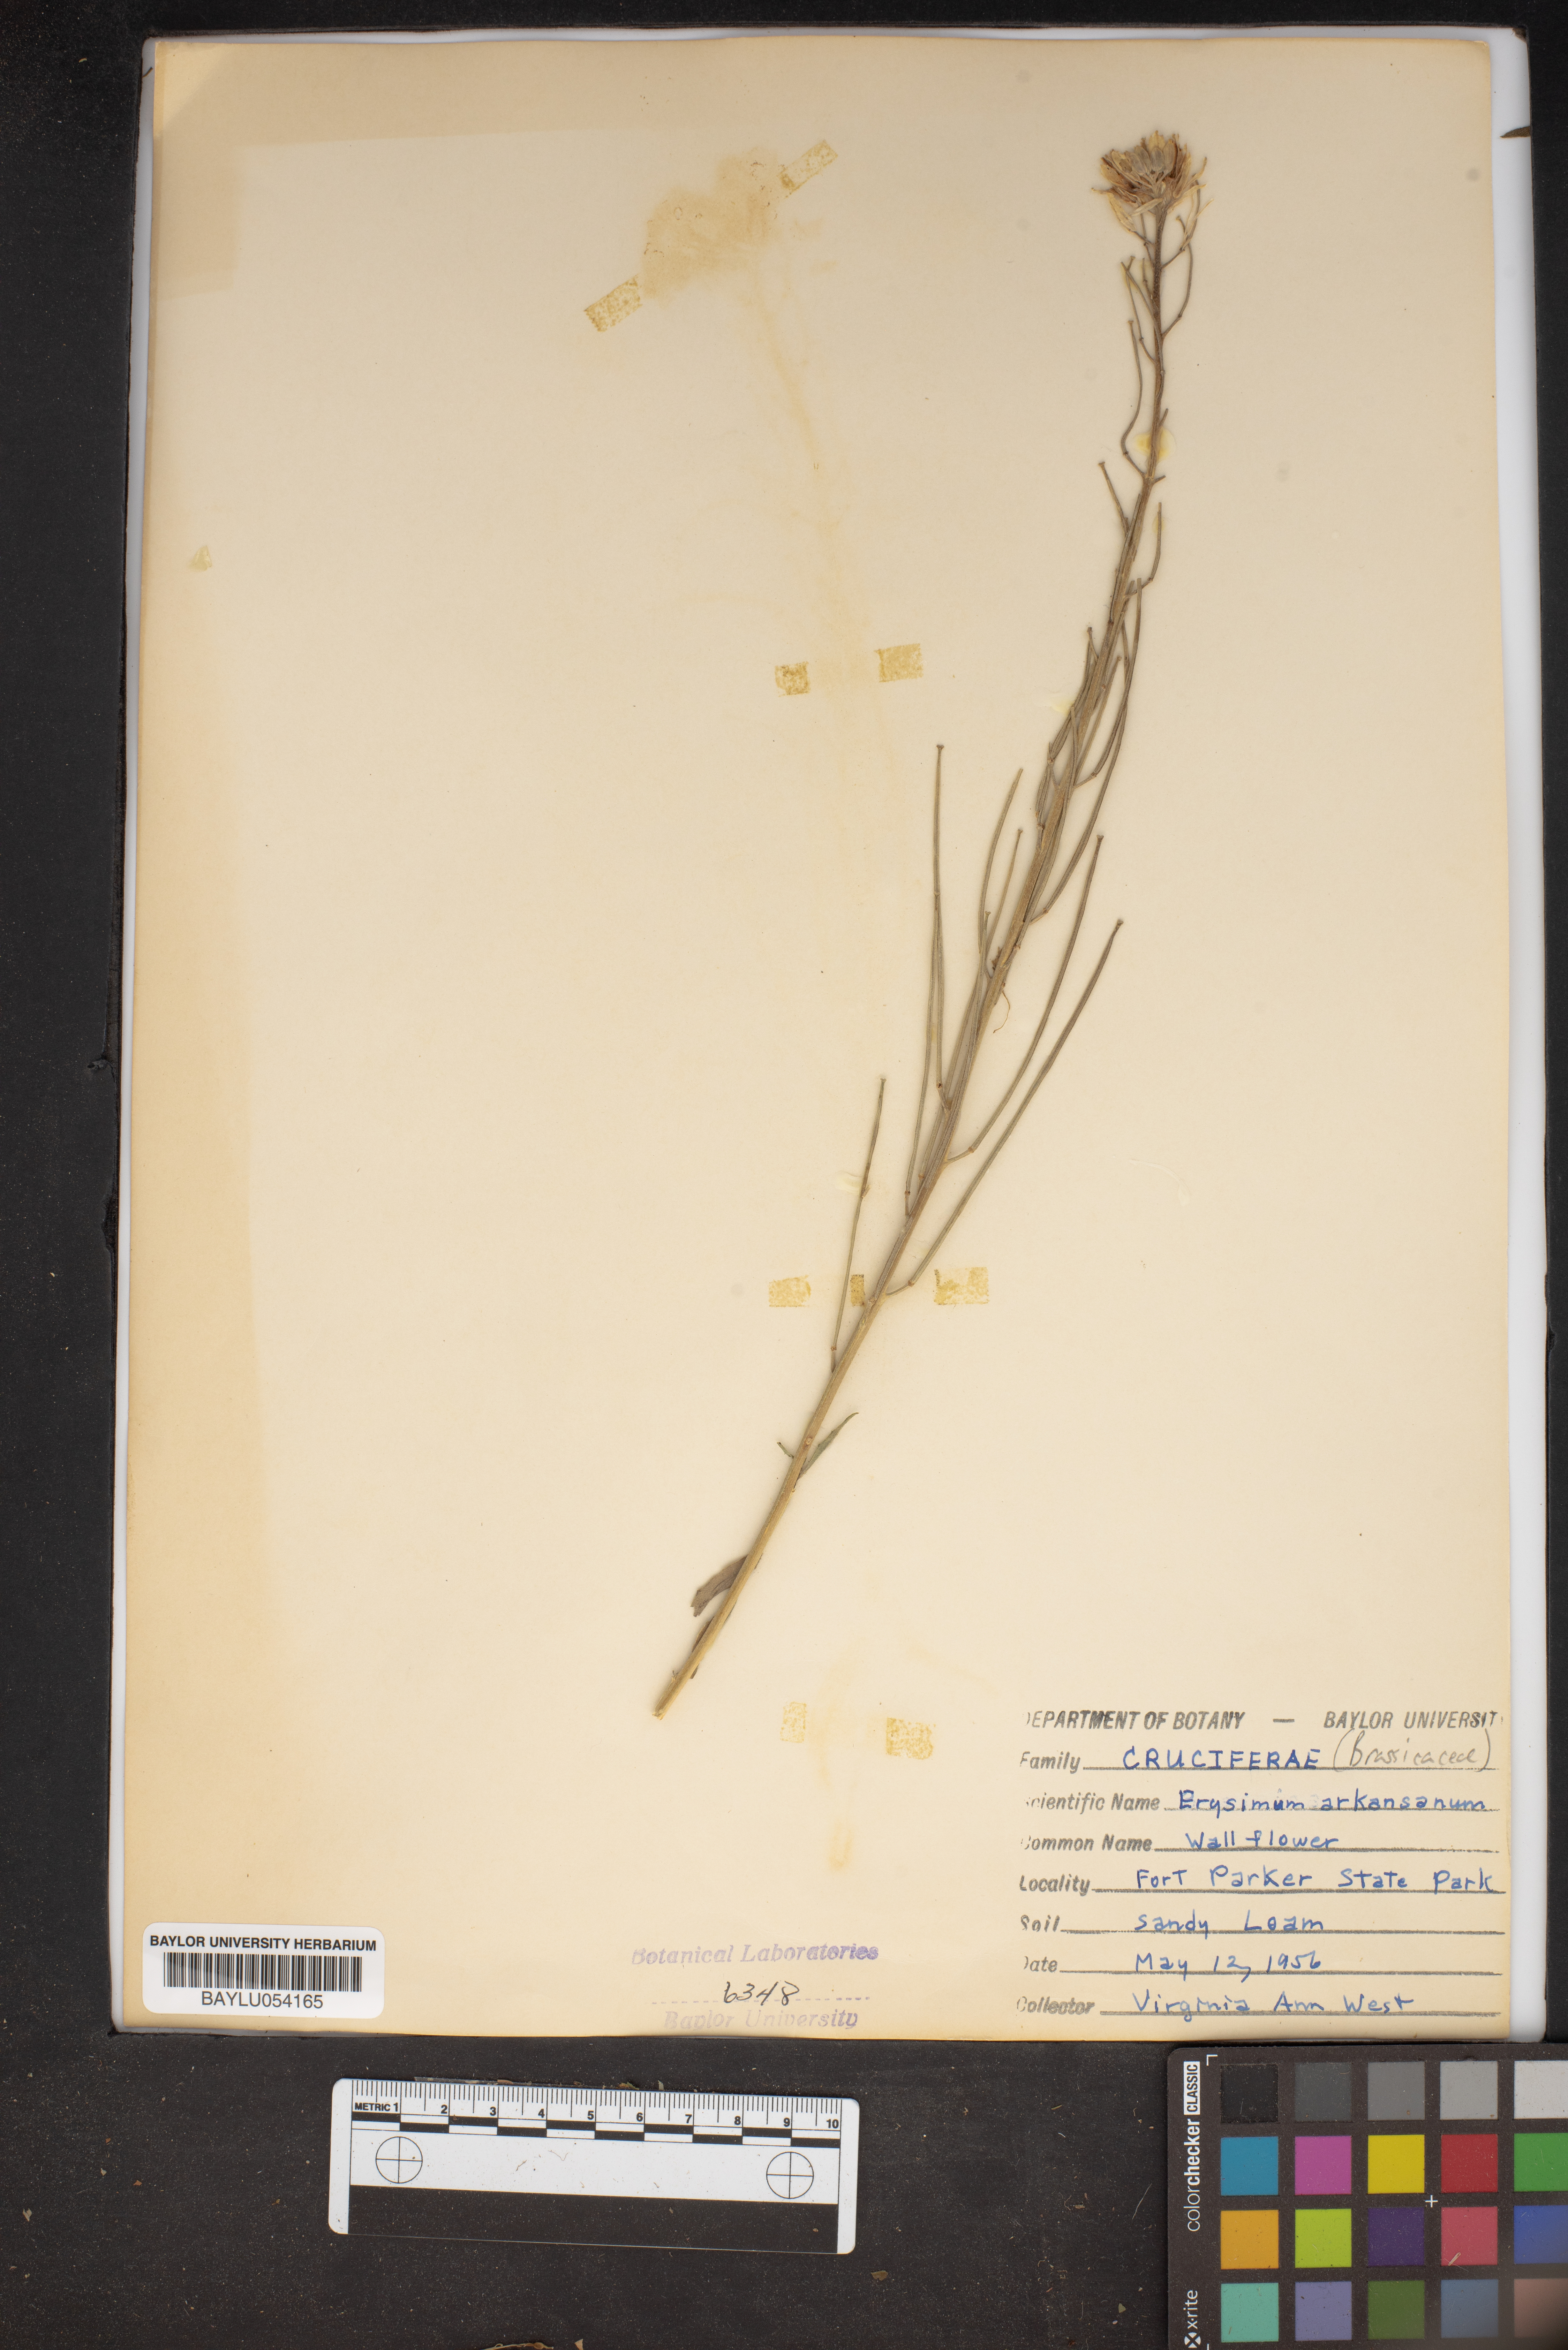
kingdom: Plantae
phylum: Tracheophyta
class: Magnoliopsida
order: Brassicales
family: Brassicaceae
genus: Erysimum
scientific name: Erysimum arkansanum
